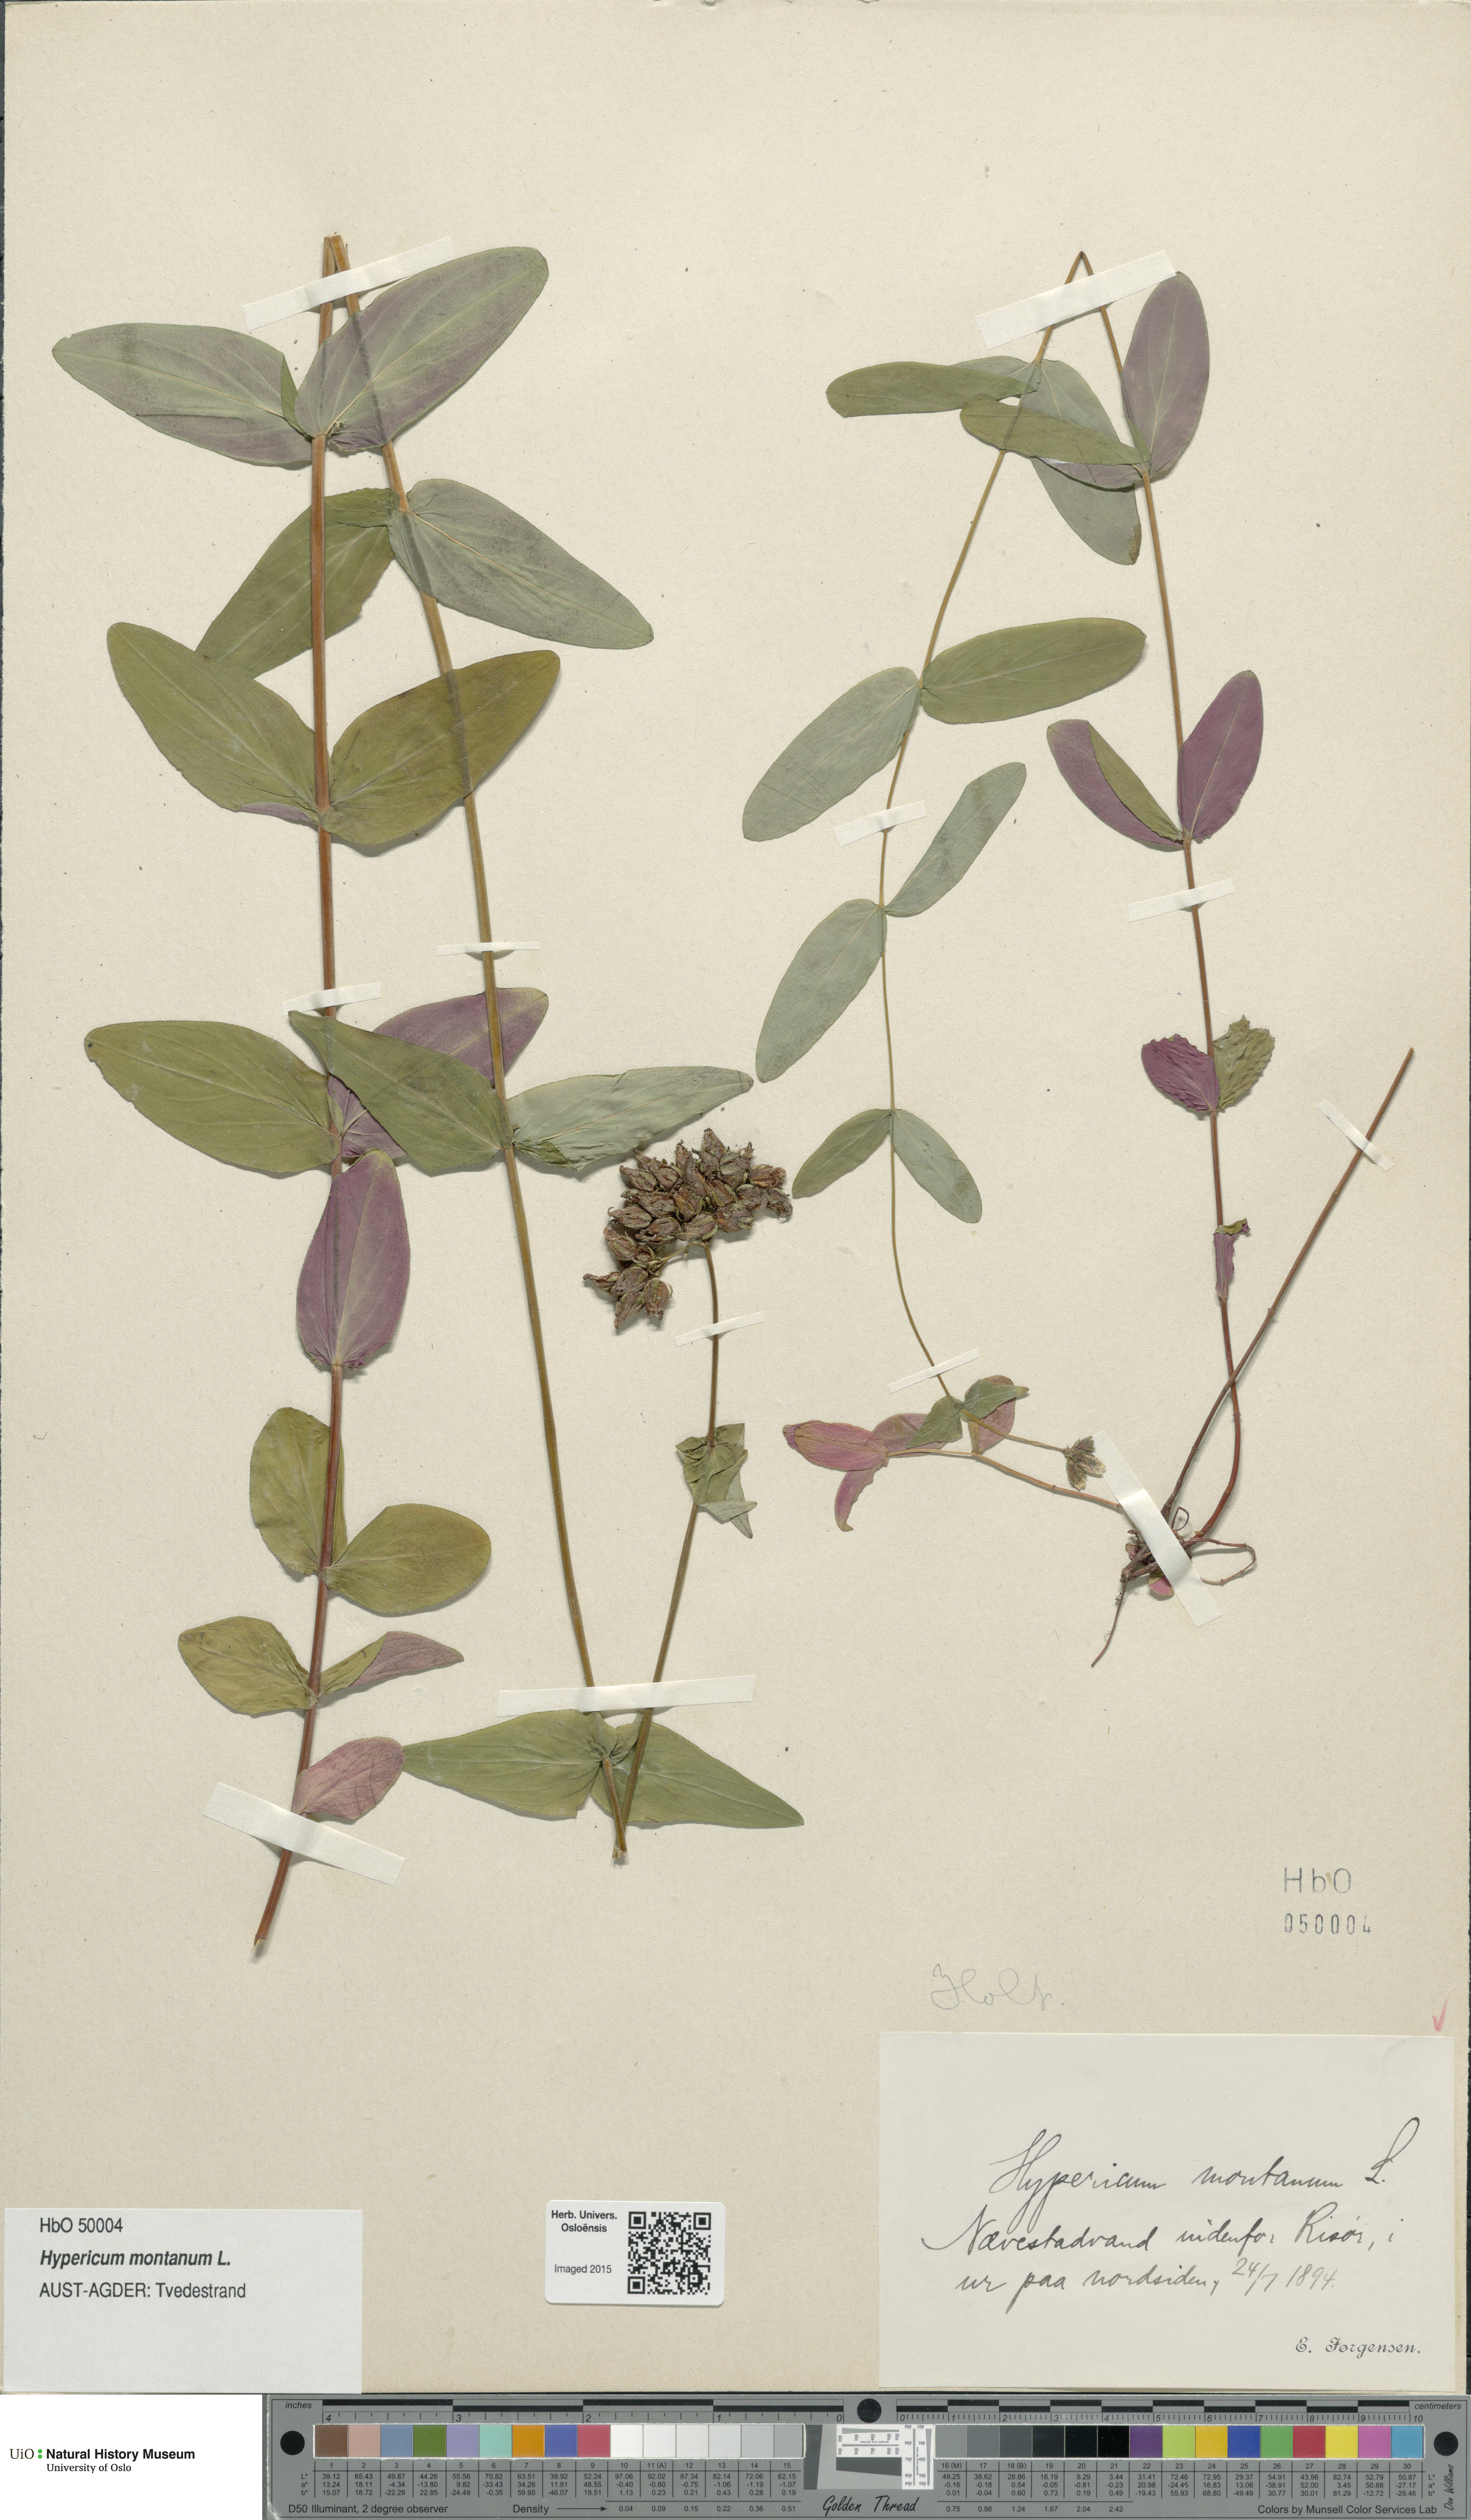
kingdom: Plantae
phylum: Tracheophyta
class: Magnoliopsida
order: Malpighiales
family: Hypericaceae
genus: Hypericum
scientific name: Hypericum montanum
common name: Pale st. john's-wort
